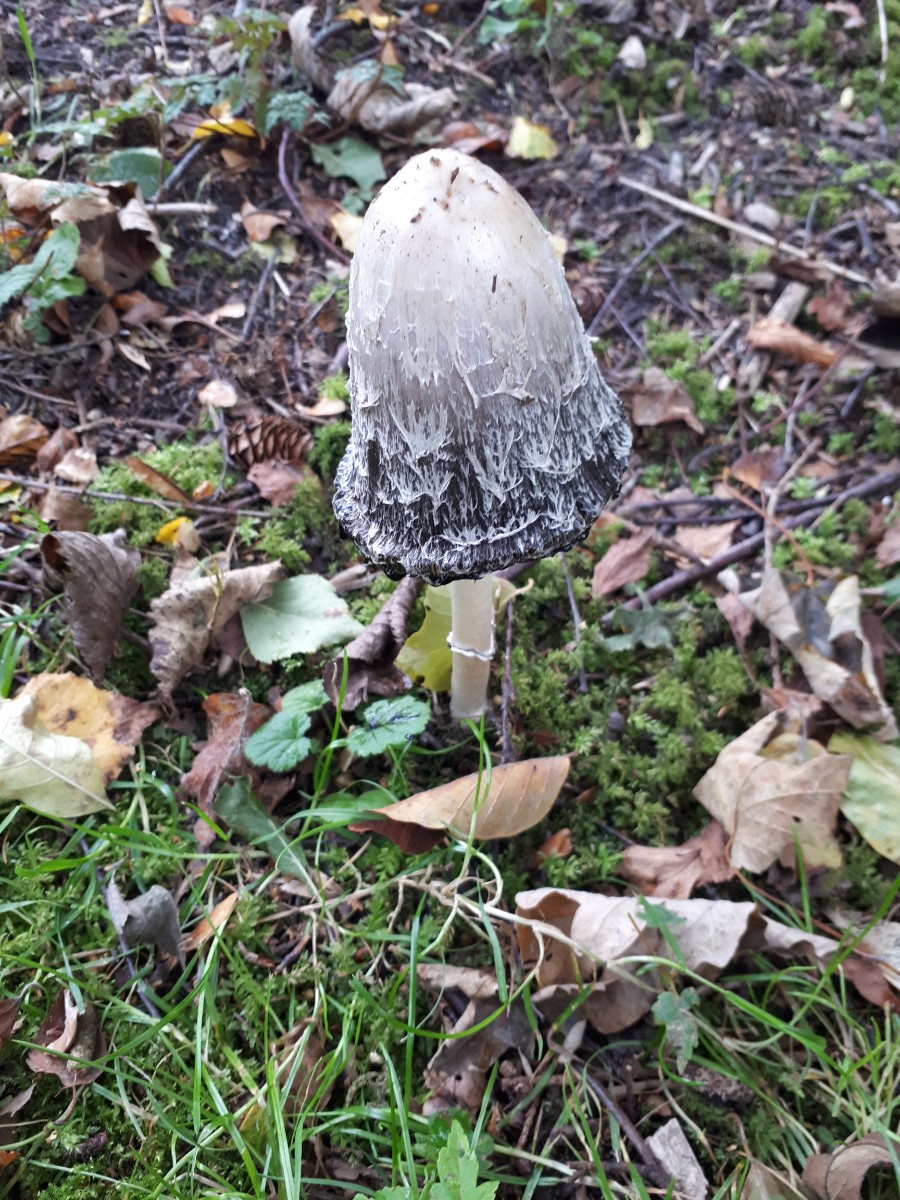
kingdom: Fungi
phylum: Basidiomycota
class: Agaricomycetes
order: Agaricales
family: Agaricaceae
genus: Coprinus
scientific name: Coprinus comatus
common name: stor parykhat
